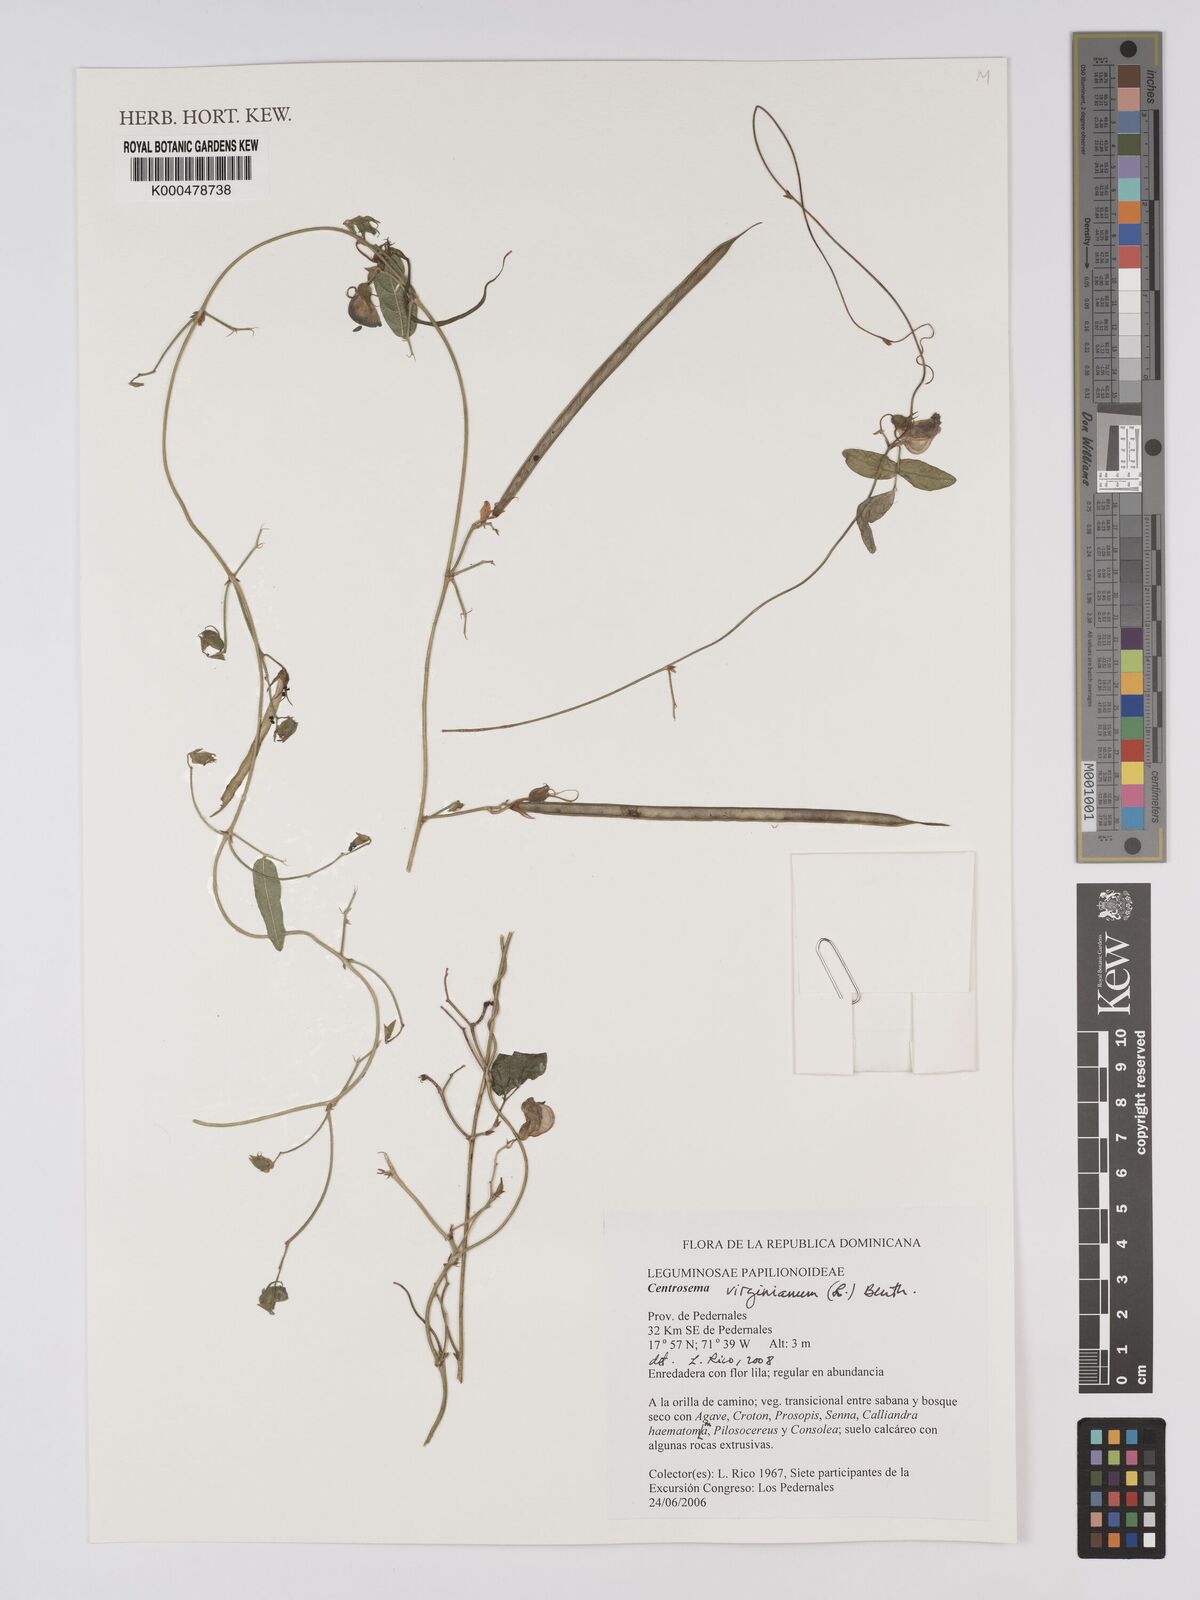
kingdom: Plantae
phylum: Tracheophyta
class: Magnoliopsida
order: Fabales
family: Fabaceae
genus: Centrosema
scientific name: Centrosema virginianum
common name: Butterfly-pea
